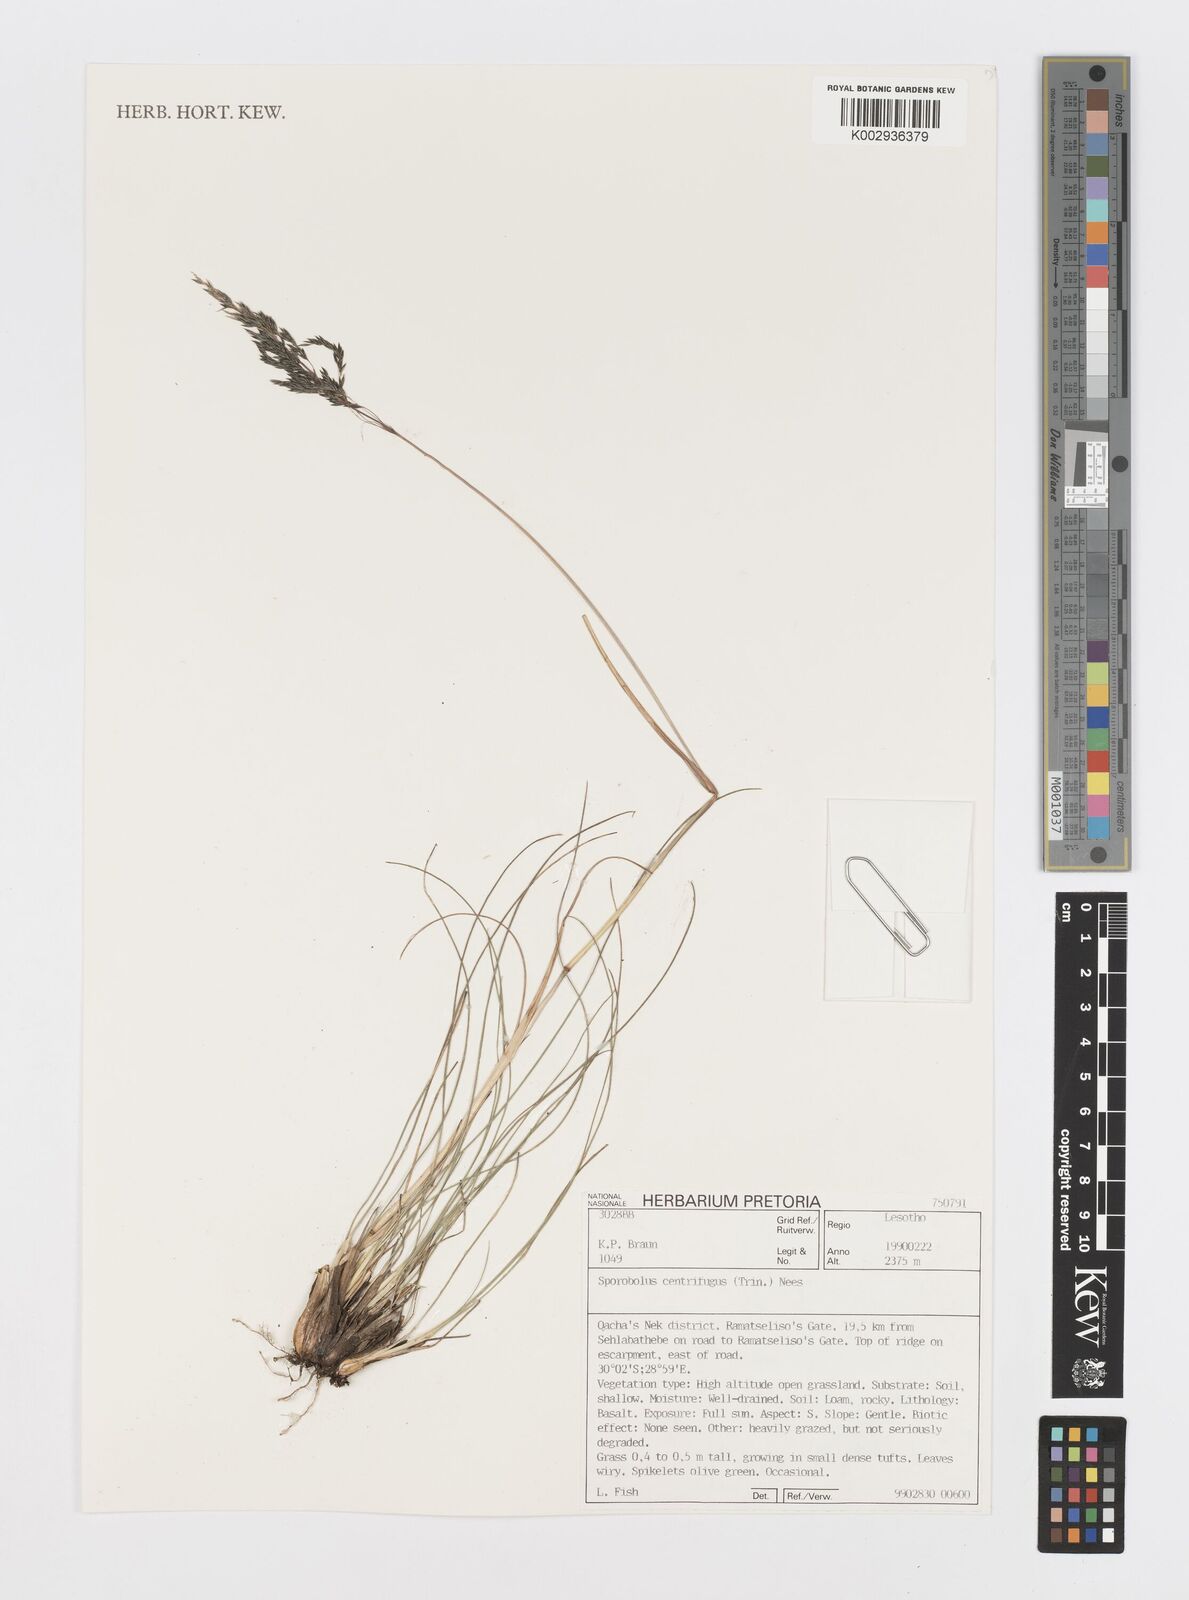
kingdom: Plantae
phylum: Tracheophyta
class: Liliopsida
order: Poales
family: Poaceae
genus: Sporobolus
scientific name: Sporobolus centrifugus
